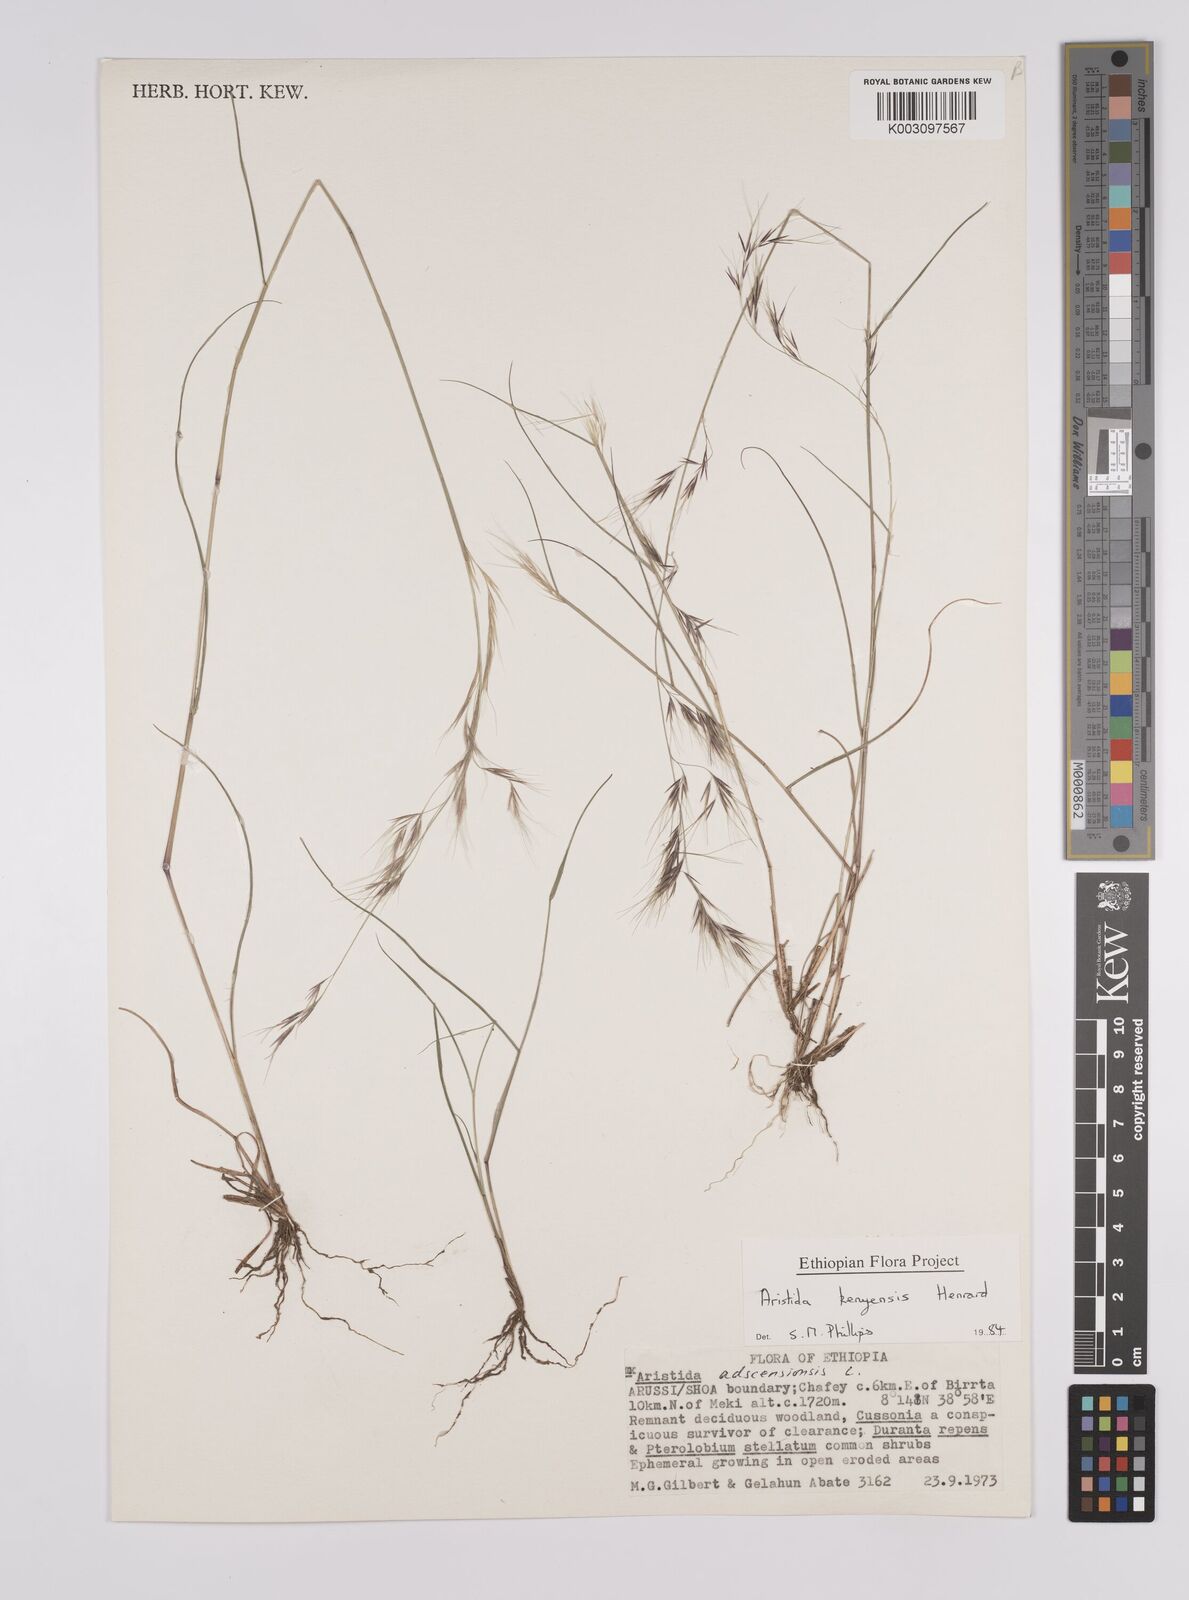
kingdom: Plantae
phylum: Tracheophyta
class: Liliopsida
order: Poales
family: Poaceae
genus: Aristida
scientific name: Aristida kenyensis
